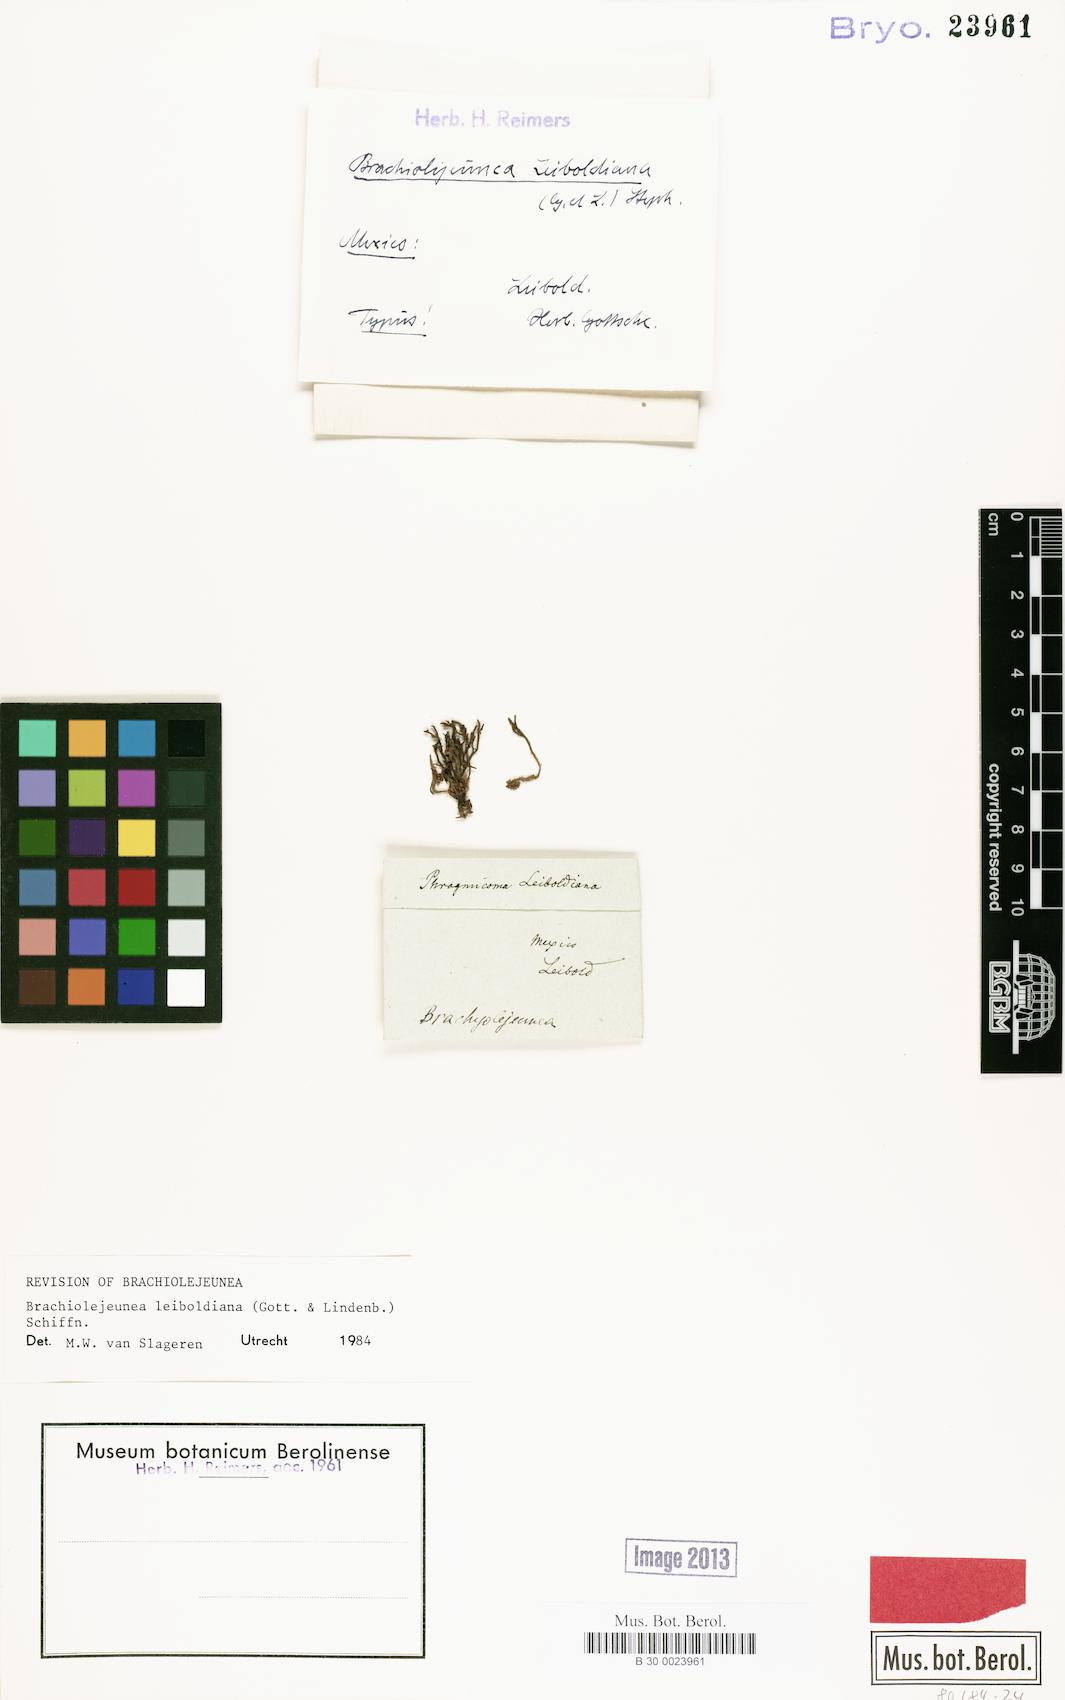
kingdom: Plantae
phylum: Marchantiophyta
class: Jungermanniopsida
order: Porellales
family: Lejeuneaceae
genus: Brachiolejeunea
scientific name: Brachiolejeunea leiboldiana
